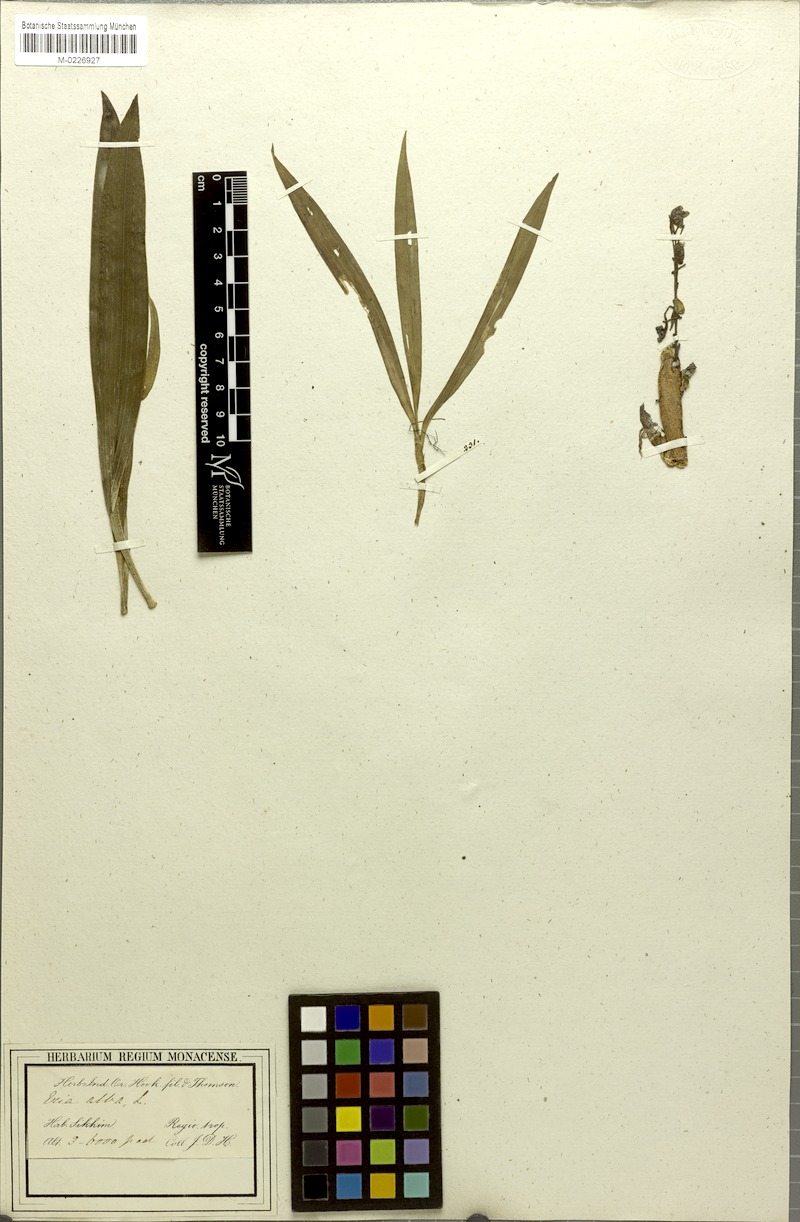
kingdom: Plantae
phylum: Tracheophyta
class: Liliopsida
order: Asparagales
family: Orchidaceae
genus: Pinalia
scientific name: Pinalia leucantha
